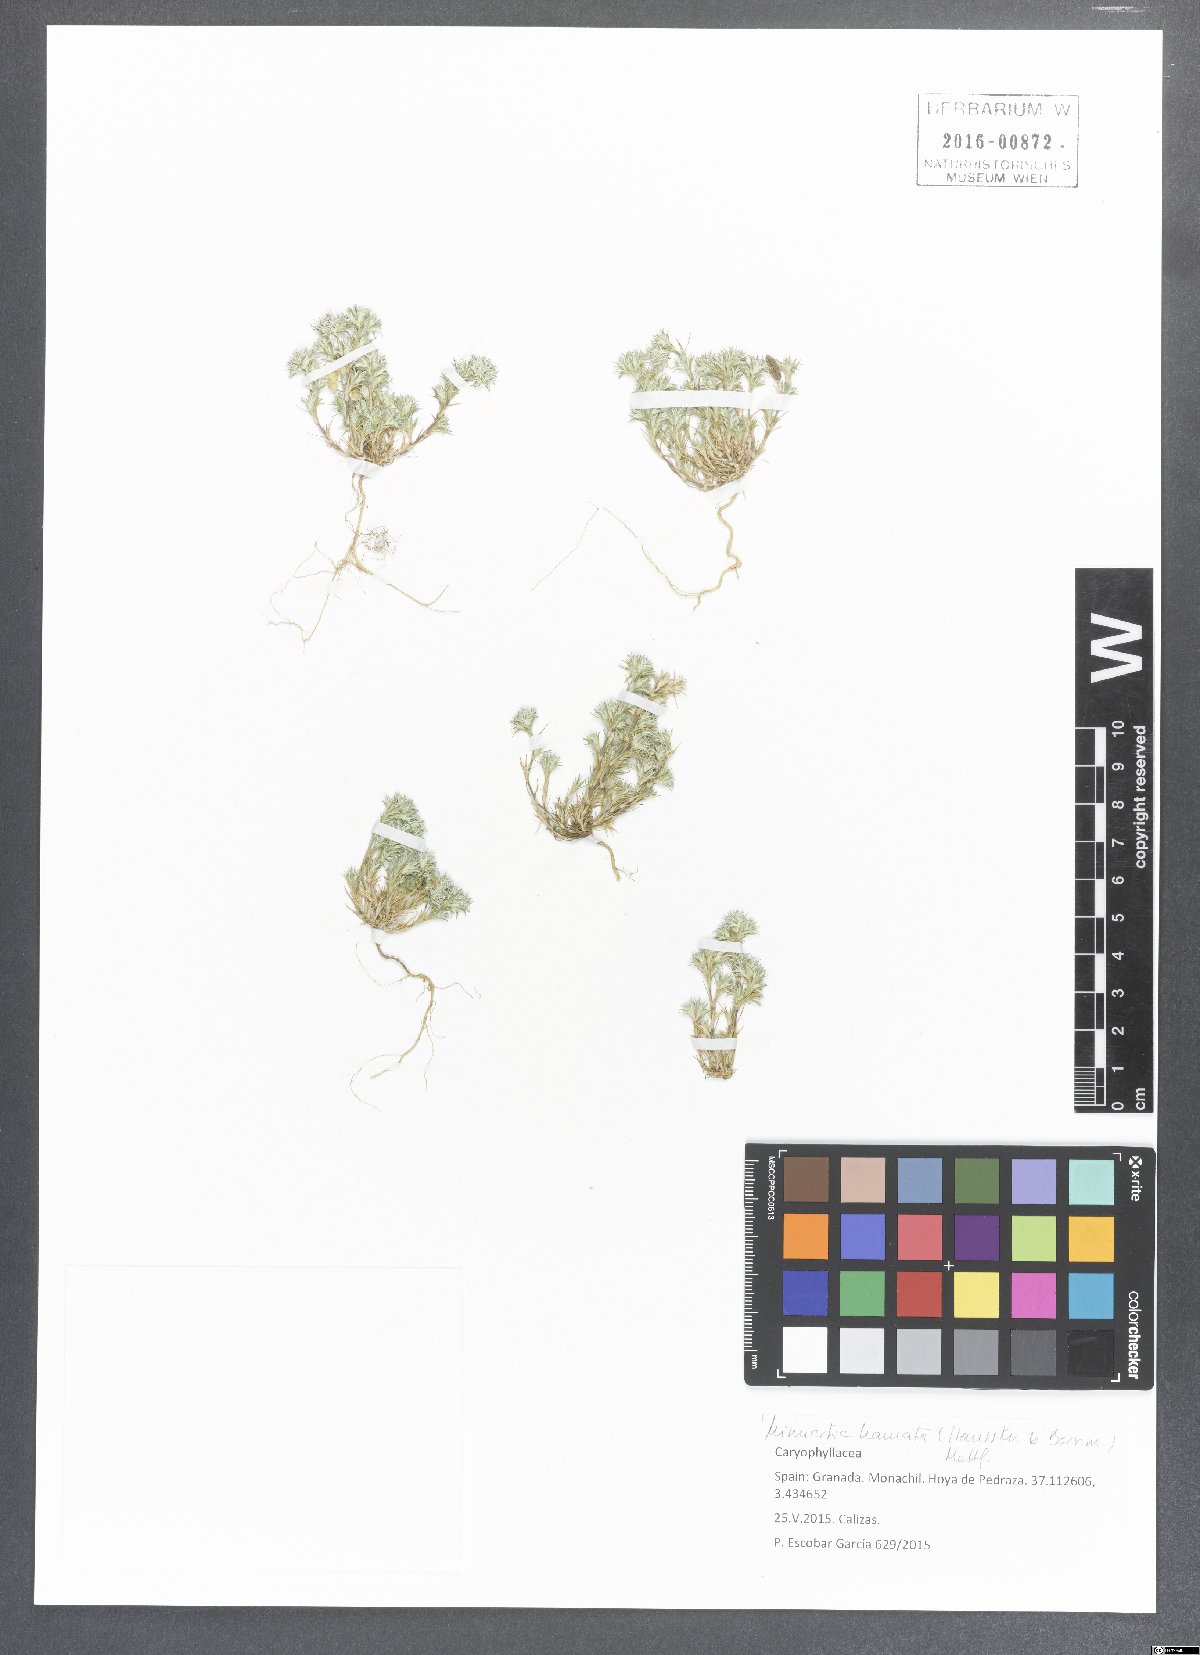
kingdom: Plantae
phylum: Tracheophyta
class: Magnoliopsida
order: Caryophyllales
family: Caryophyllaceae
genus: Minuartia
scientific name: Minuartia hamata
